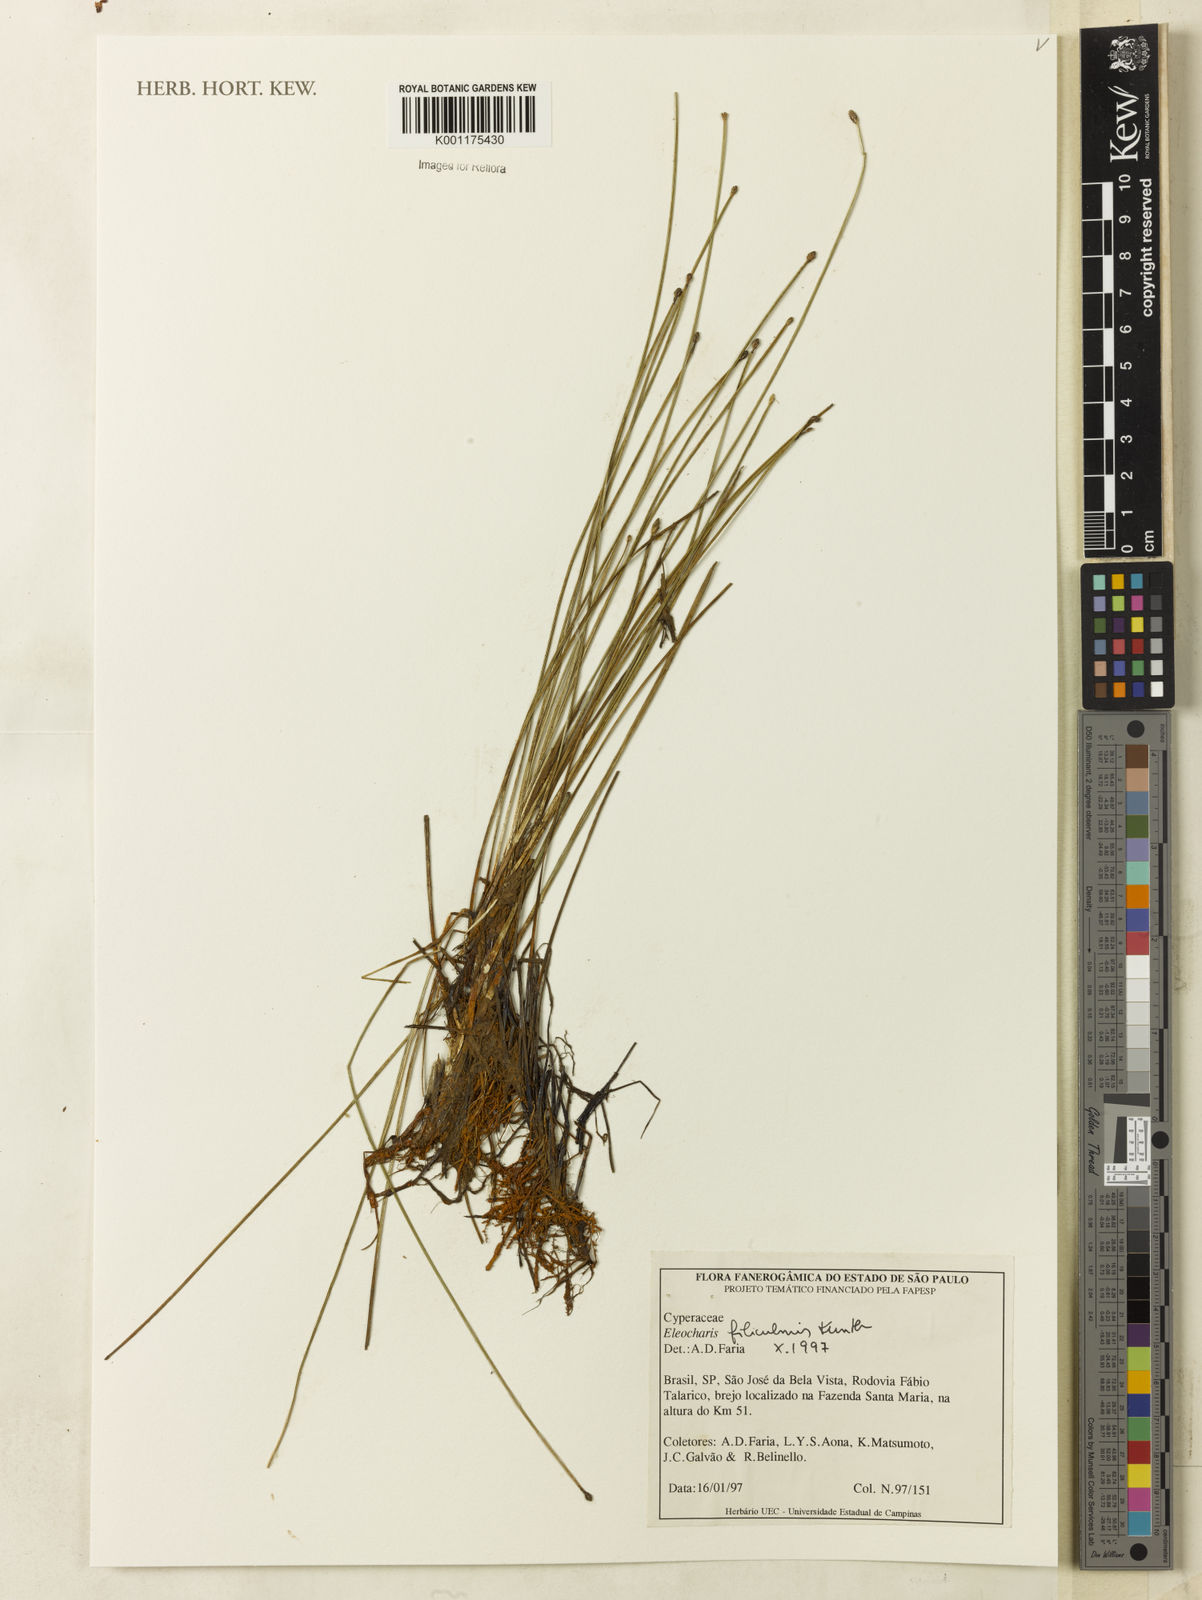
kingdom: Plantae
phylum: Tracheophyta
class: Liliopsida
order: Poales
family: Cyperaceae
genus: Eleocharis
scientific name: Eleocharis filiculmis
